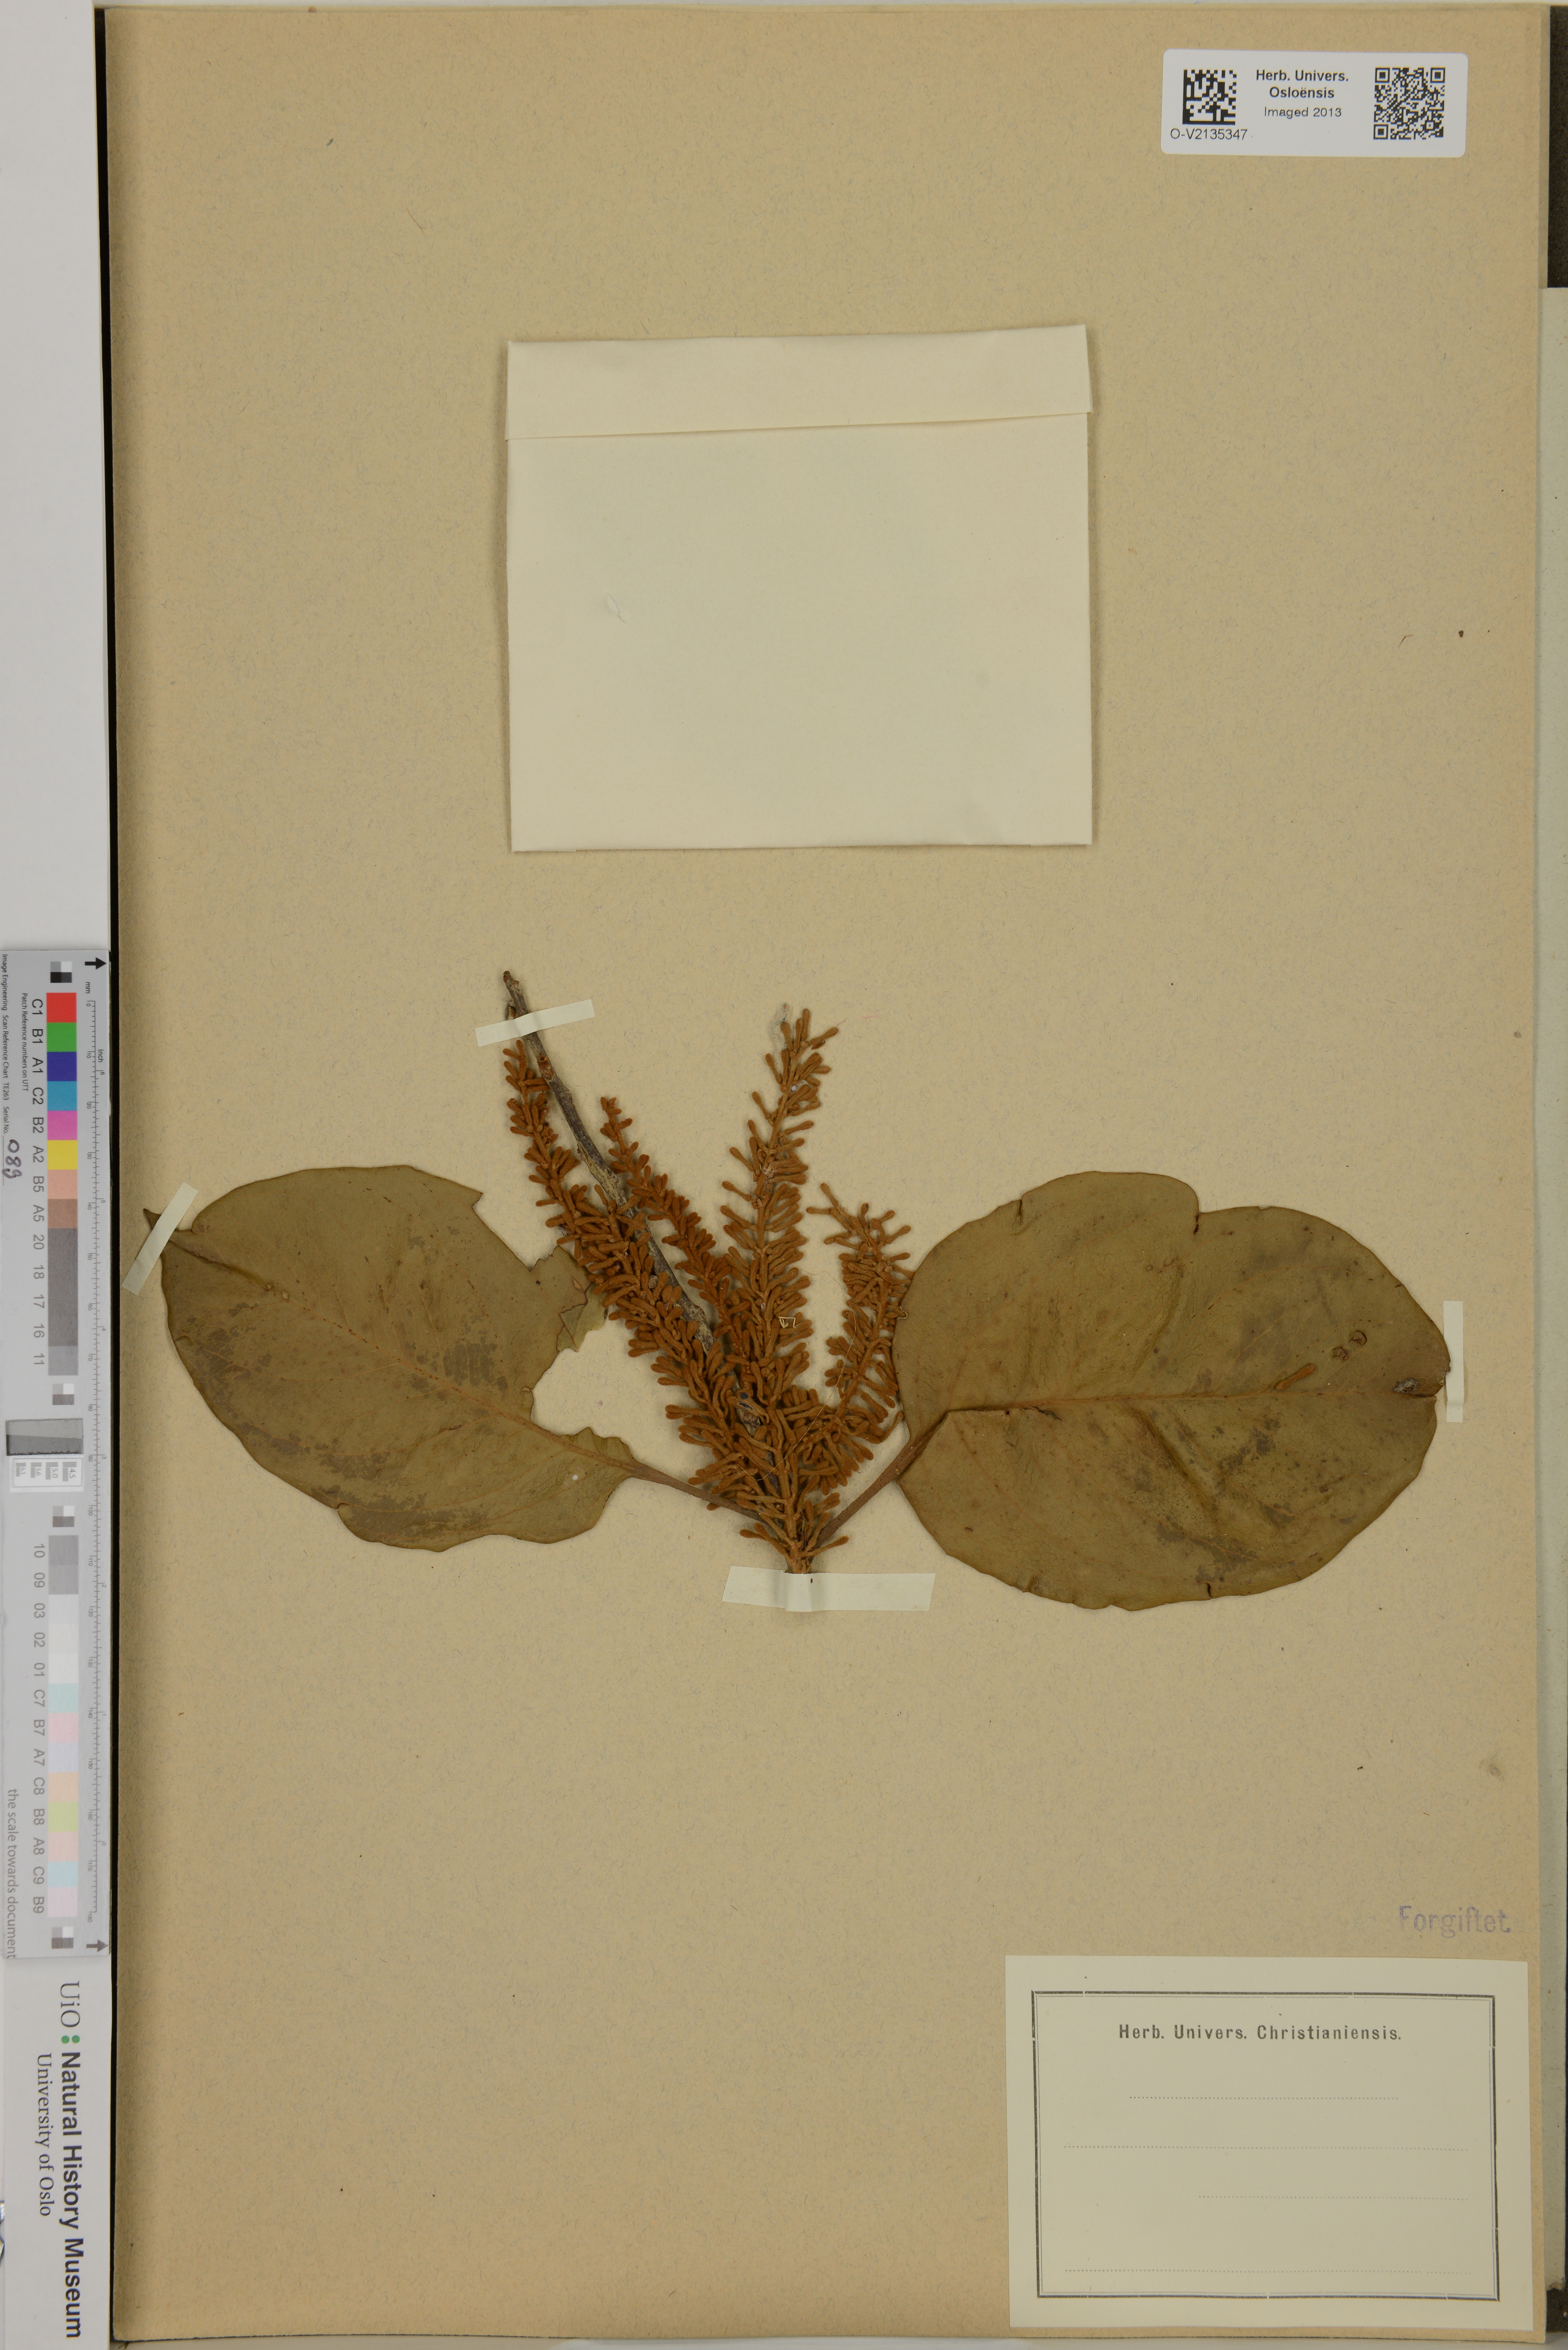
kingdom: Plantae
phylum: Tracheophyta
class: Magnoliopsida
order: Proteales
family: Proteaceae
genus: Roupala
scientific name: Roupala montana
